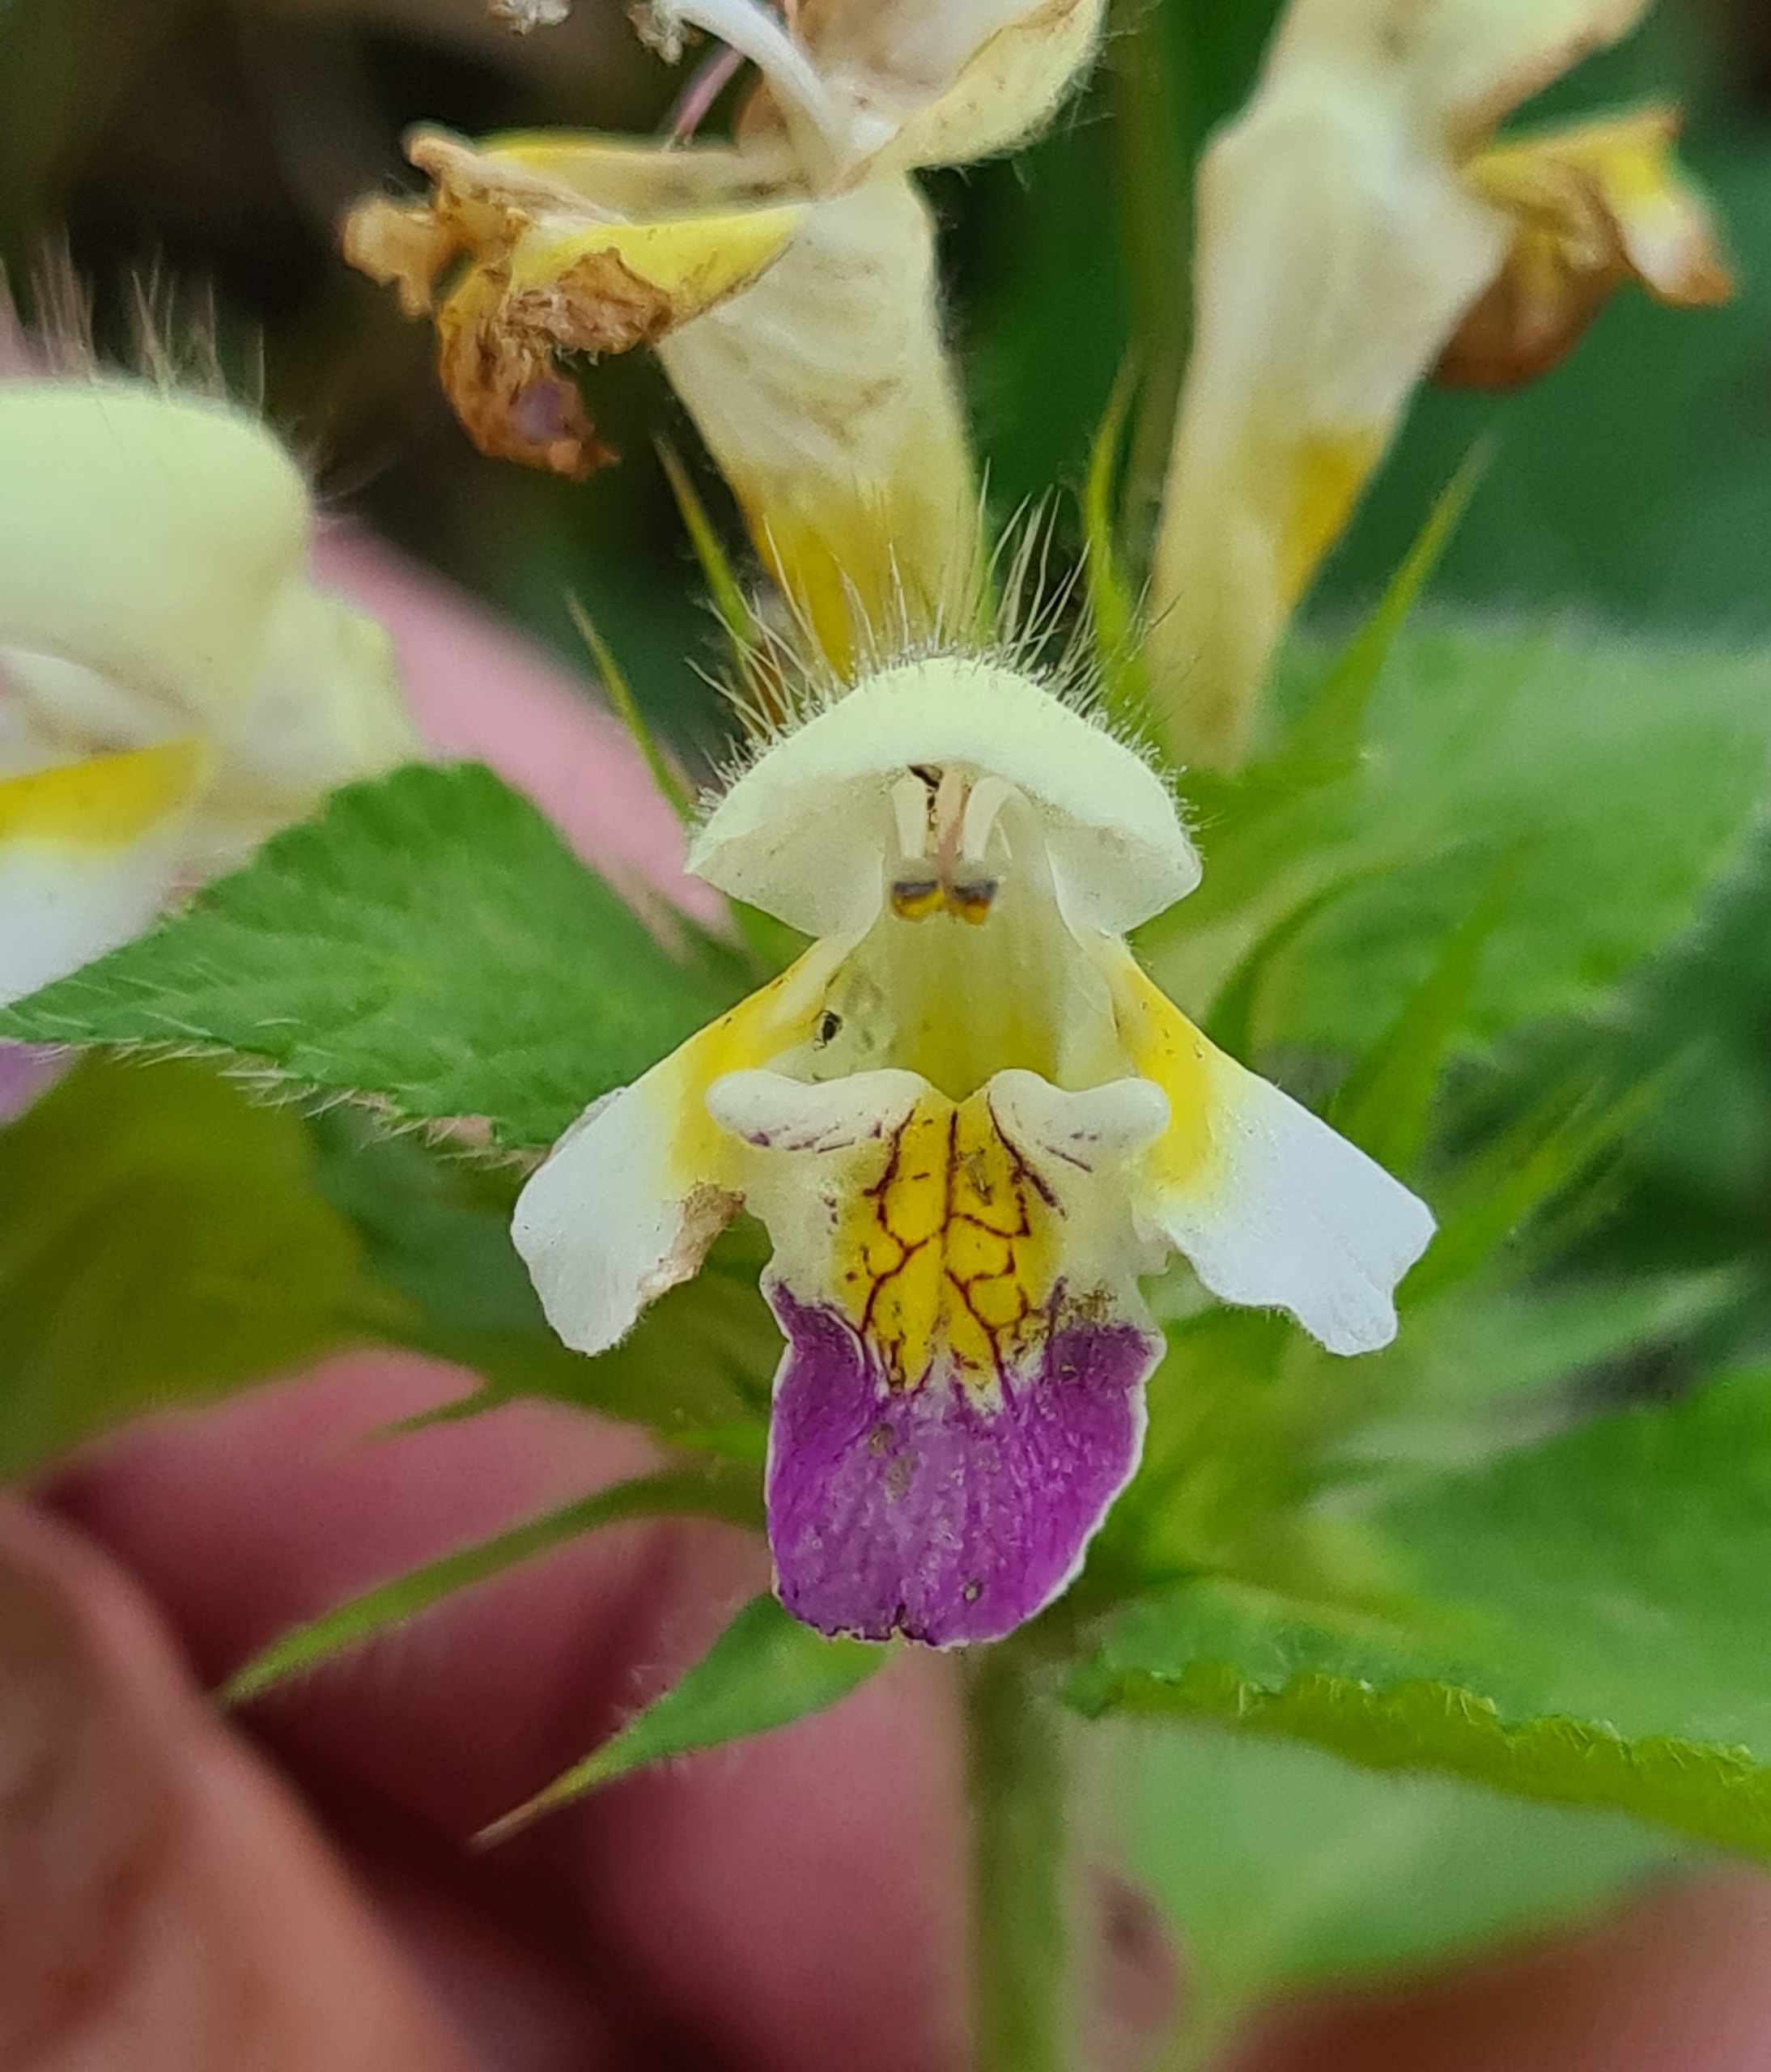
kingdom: Plantae
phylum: Tracheophyta
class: Magnoliopsida
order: Lamiales
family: Lamiaceae
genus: Galeopsis
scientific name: Galeopsis speciosa
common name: Hamp-hanekro
